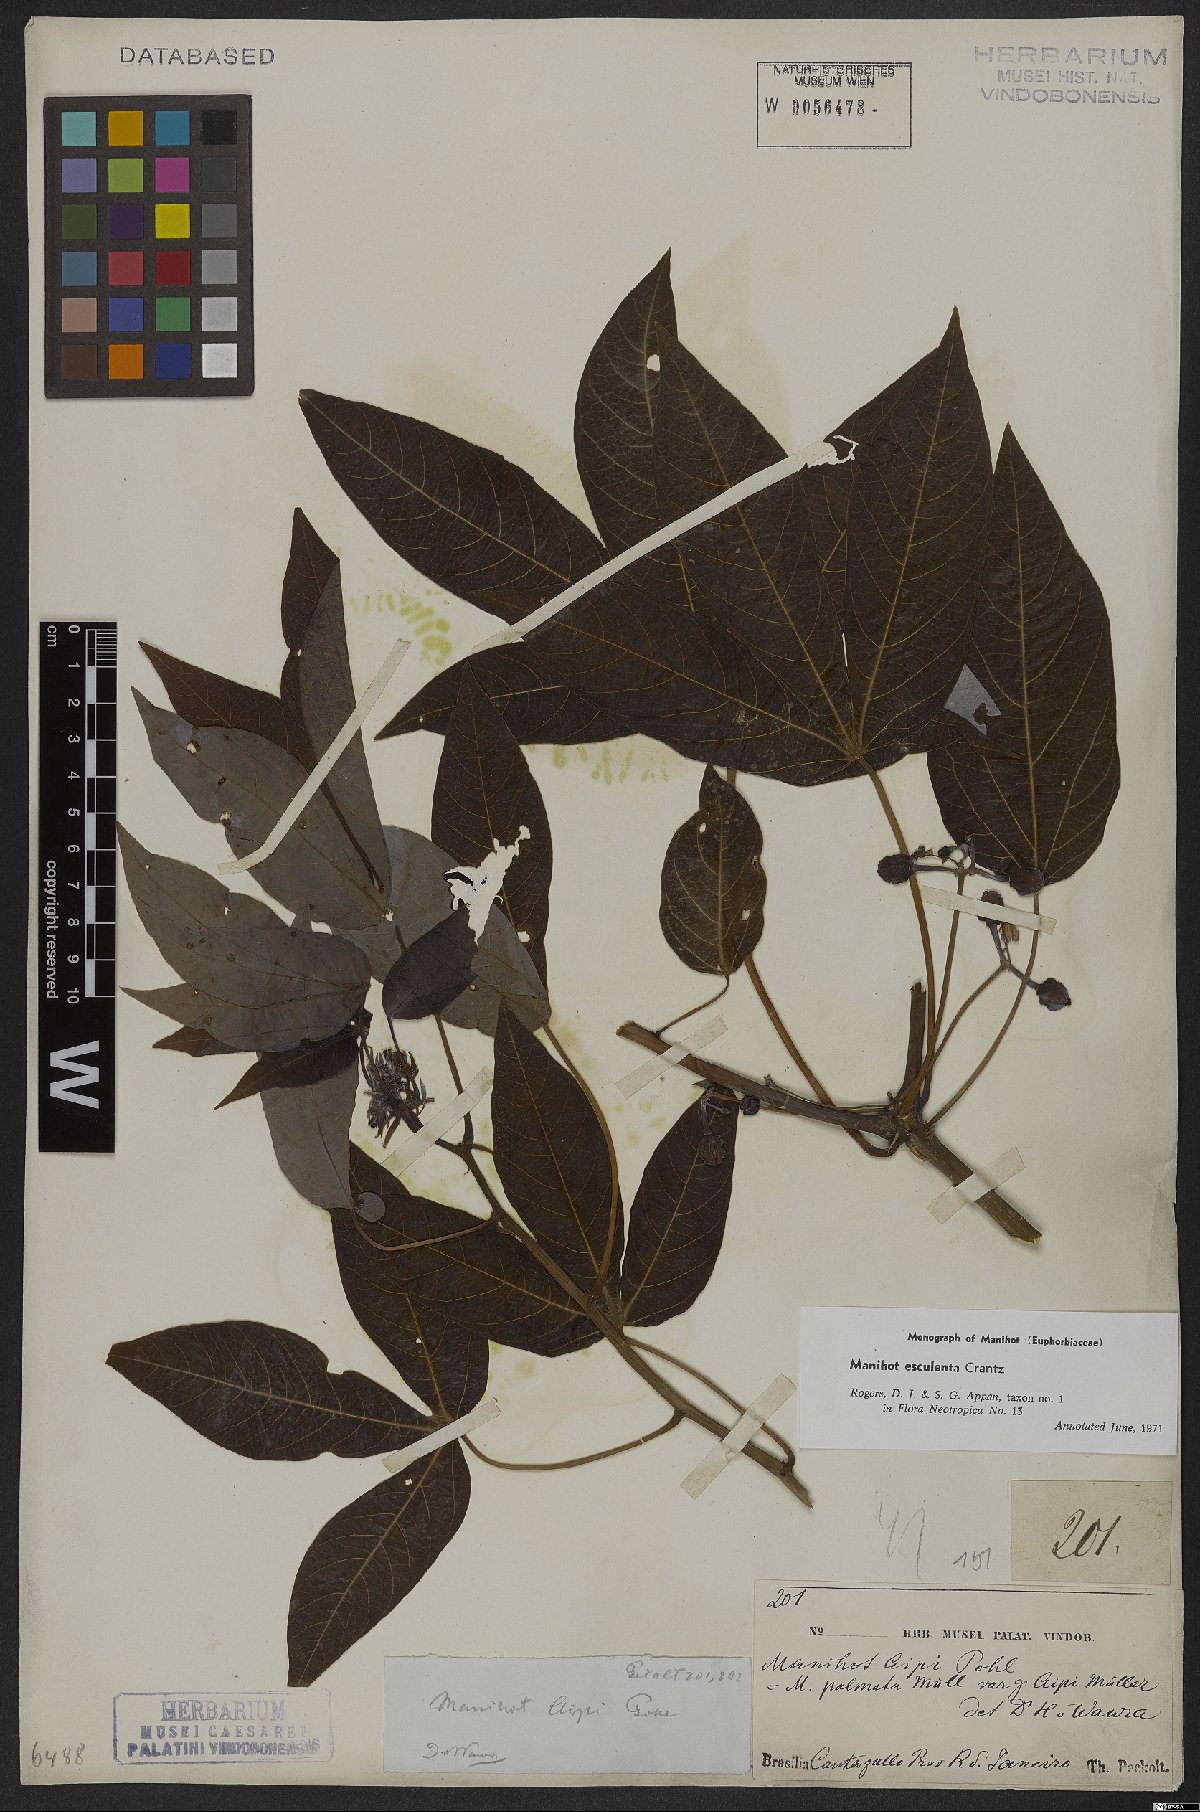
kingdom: Plantae
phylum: Tracheophyta
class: Magnoliopsida
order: Malpighiales
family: Euphorbiaceae
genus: Manihot
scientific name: Manihot esculenta
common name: Cassava
